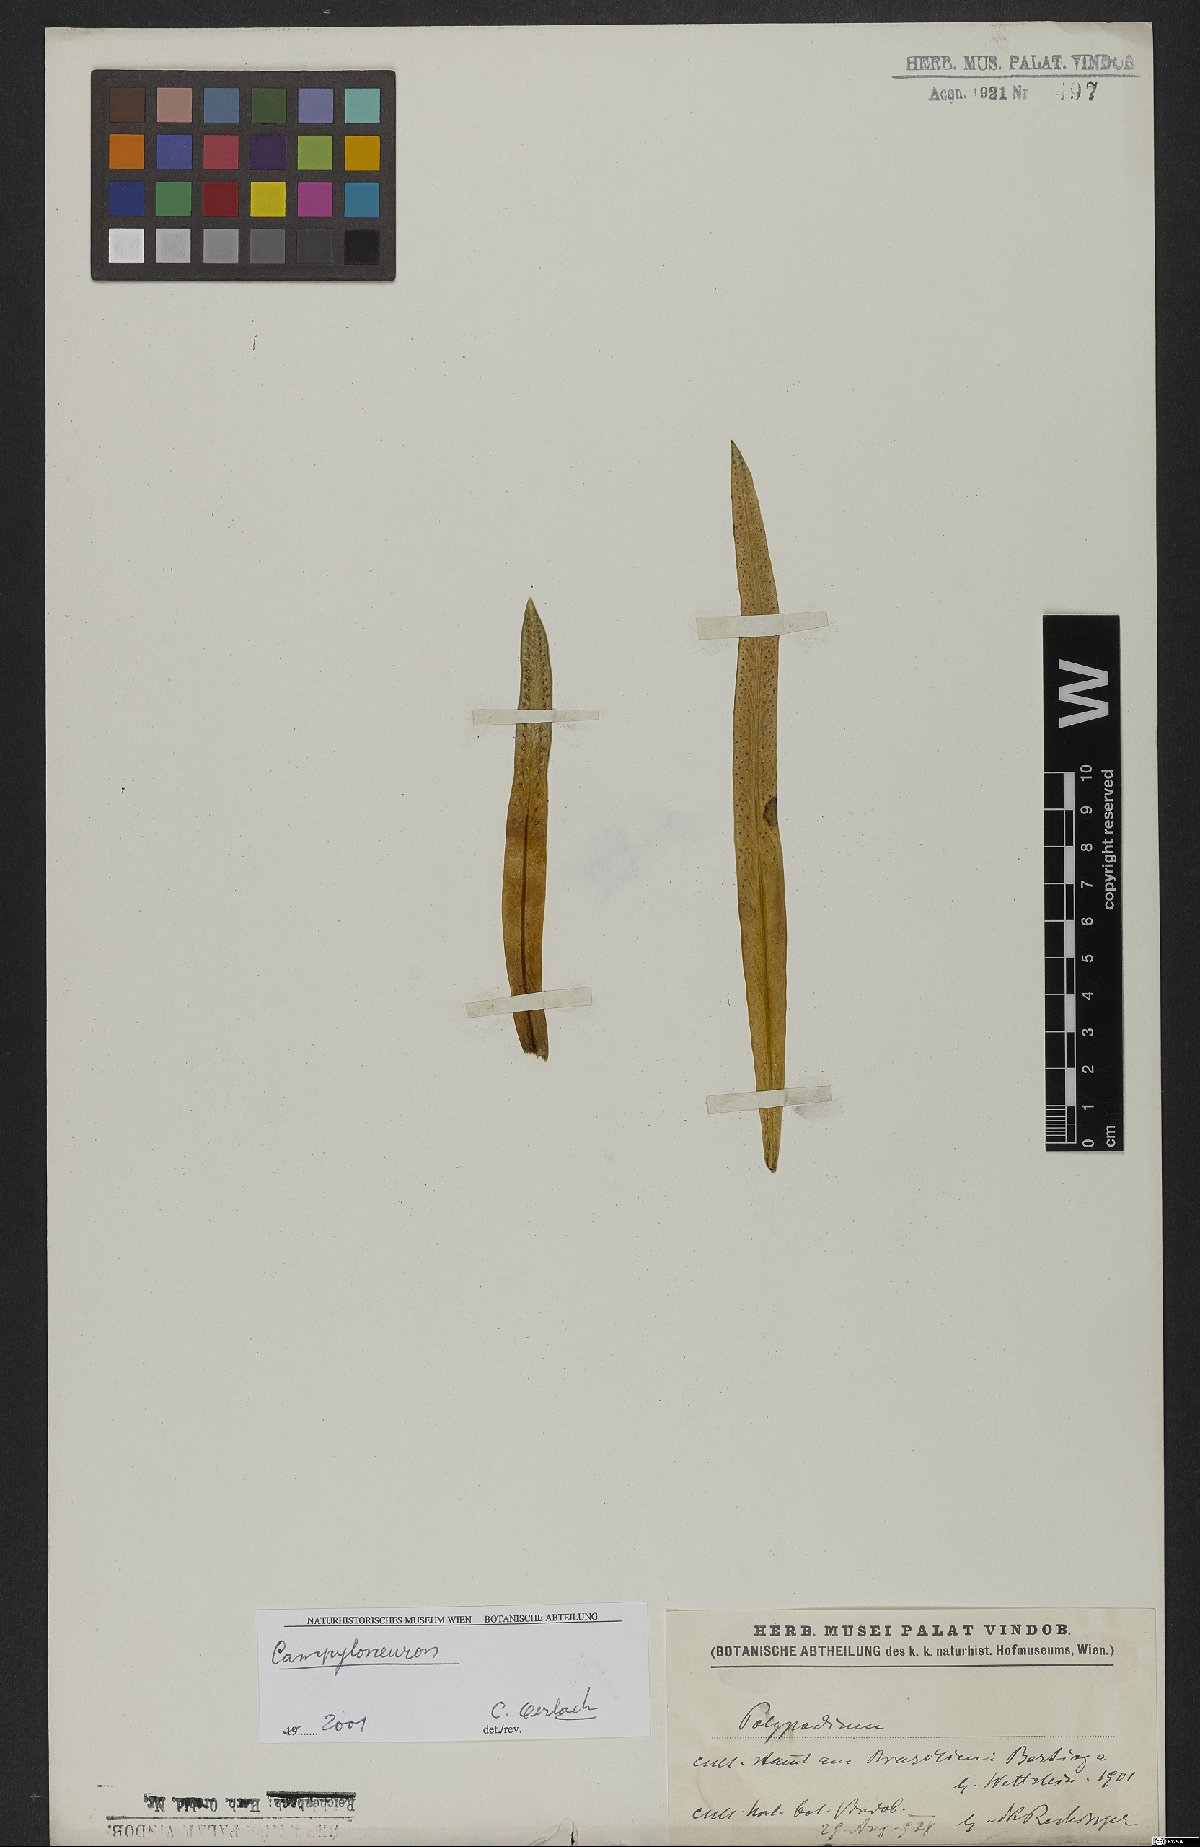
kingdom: Plantae
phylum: Tracheophyta
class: Polypodiopsida
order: Polypodiales
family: Polypodiaceae
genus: Campyloneurum
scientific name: Campyloneurum nitidum
